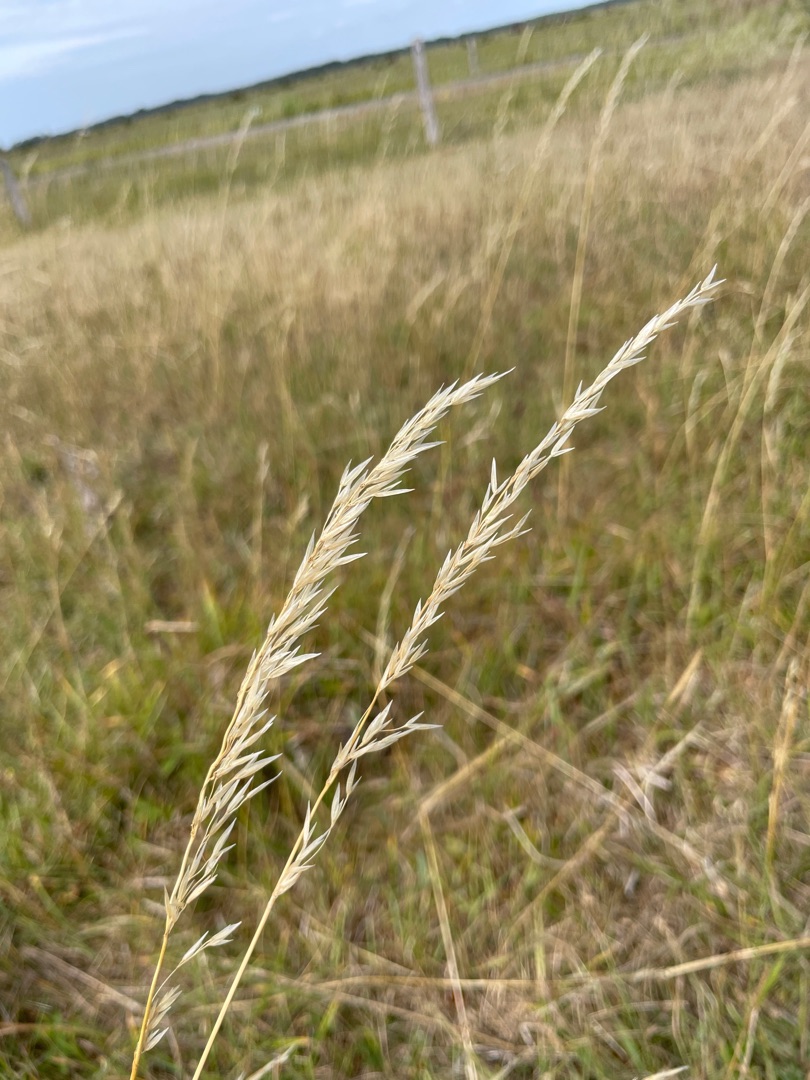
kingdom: Plantae
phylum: Tracheophyta
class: Liliopsida
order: Poales
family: Poaceae
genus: Arrhenatherum
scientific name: Arrhenatherum elatius
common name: Draphavre
